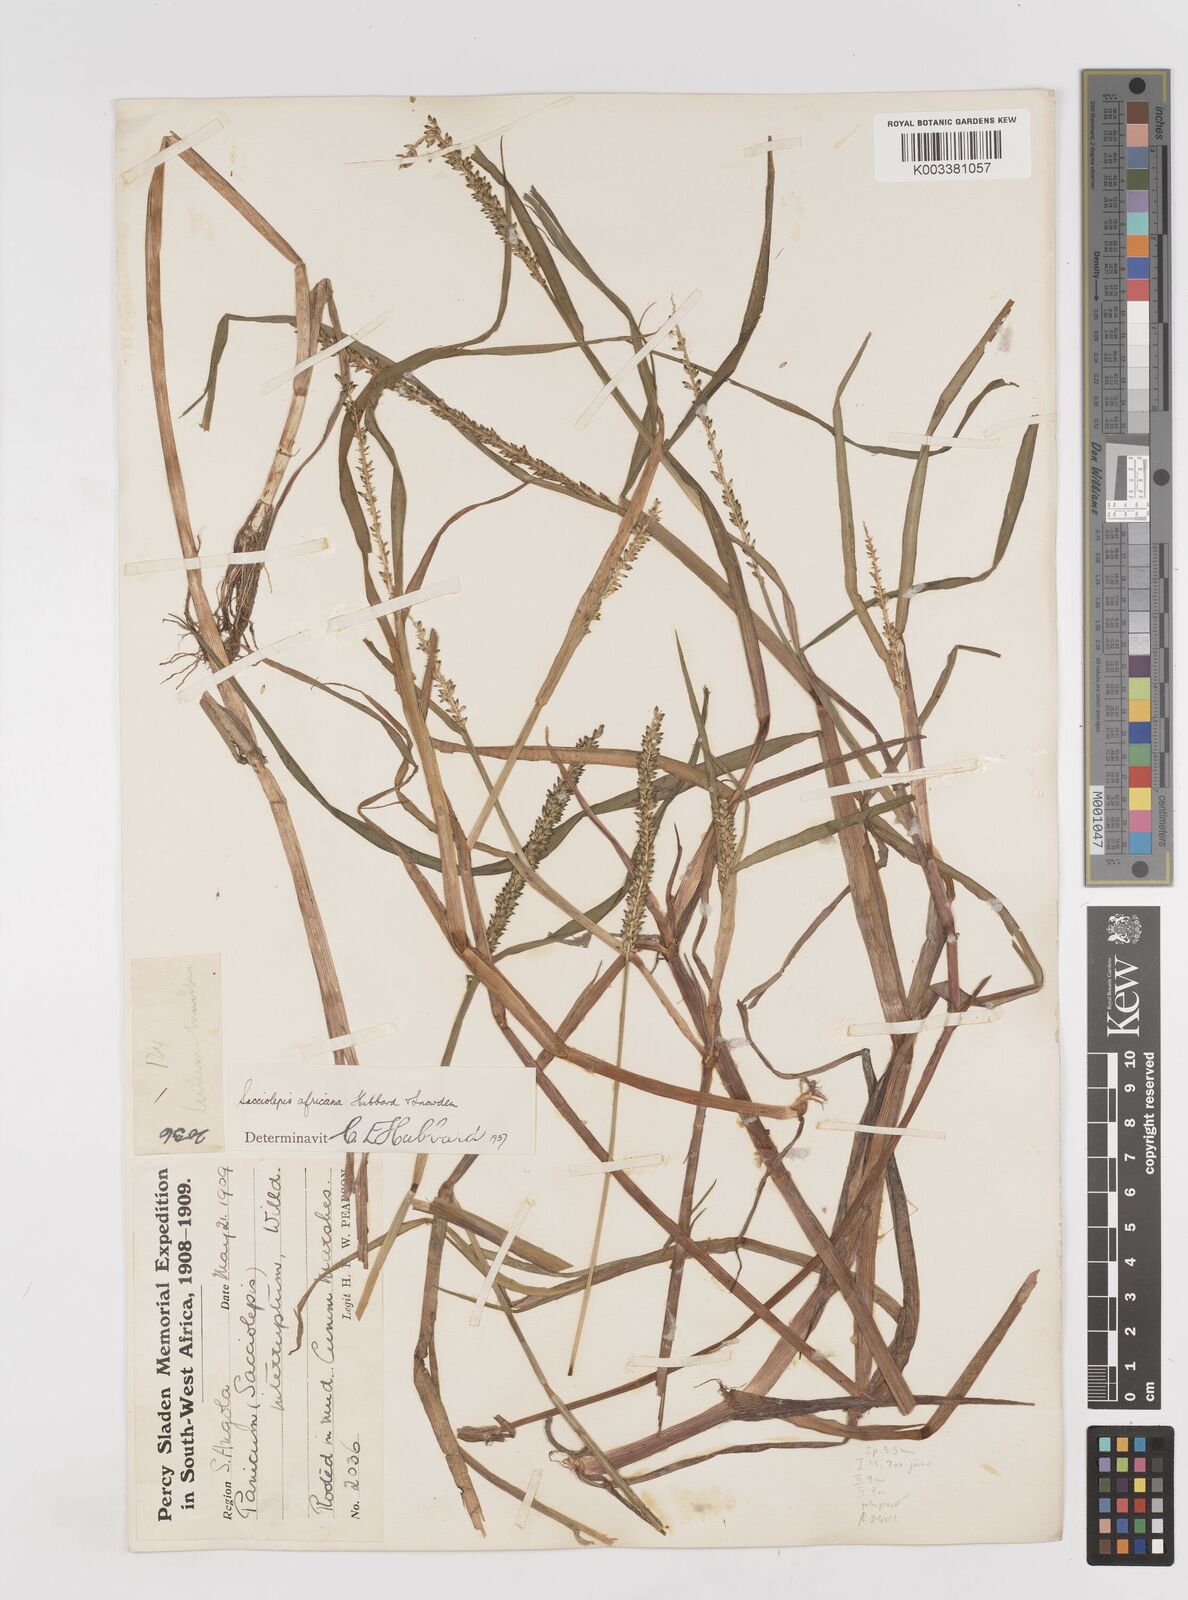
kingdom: Plantae
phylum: Tracheophyta
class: Liliopsida
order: Poales
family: Poaceae
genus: Sacciolepis
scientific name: Sacciolepis africana
